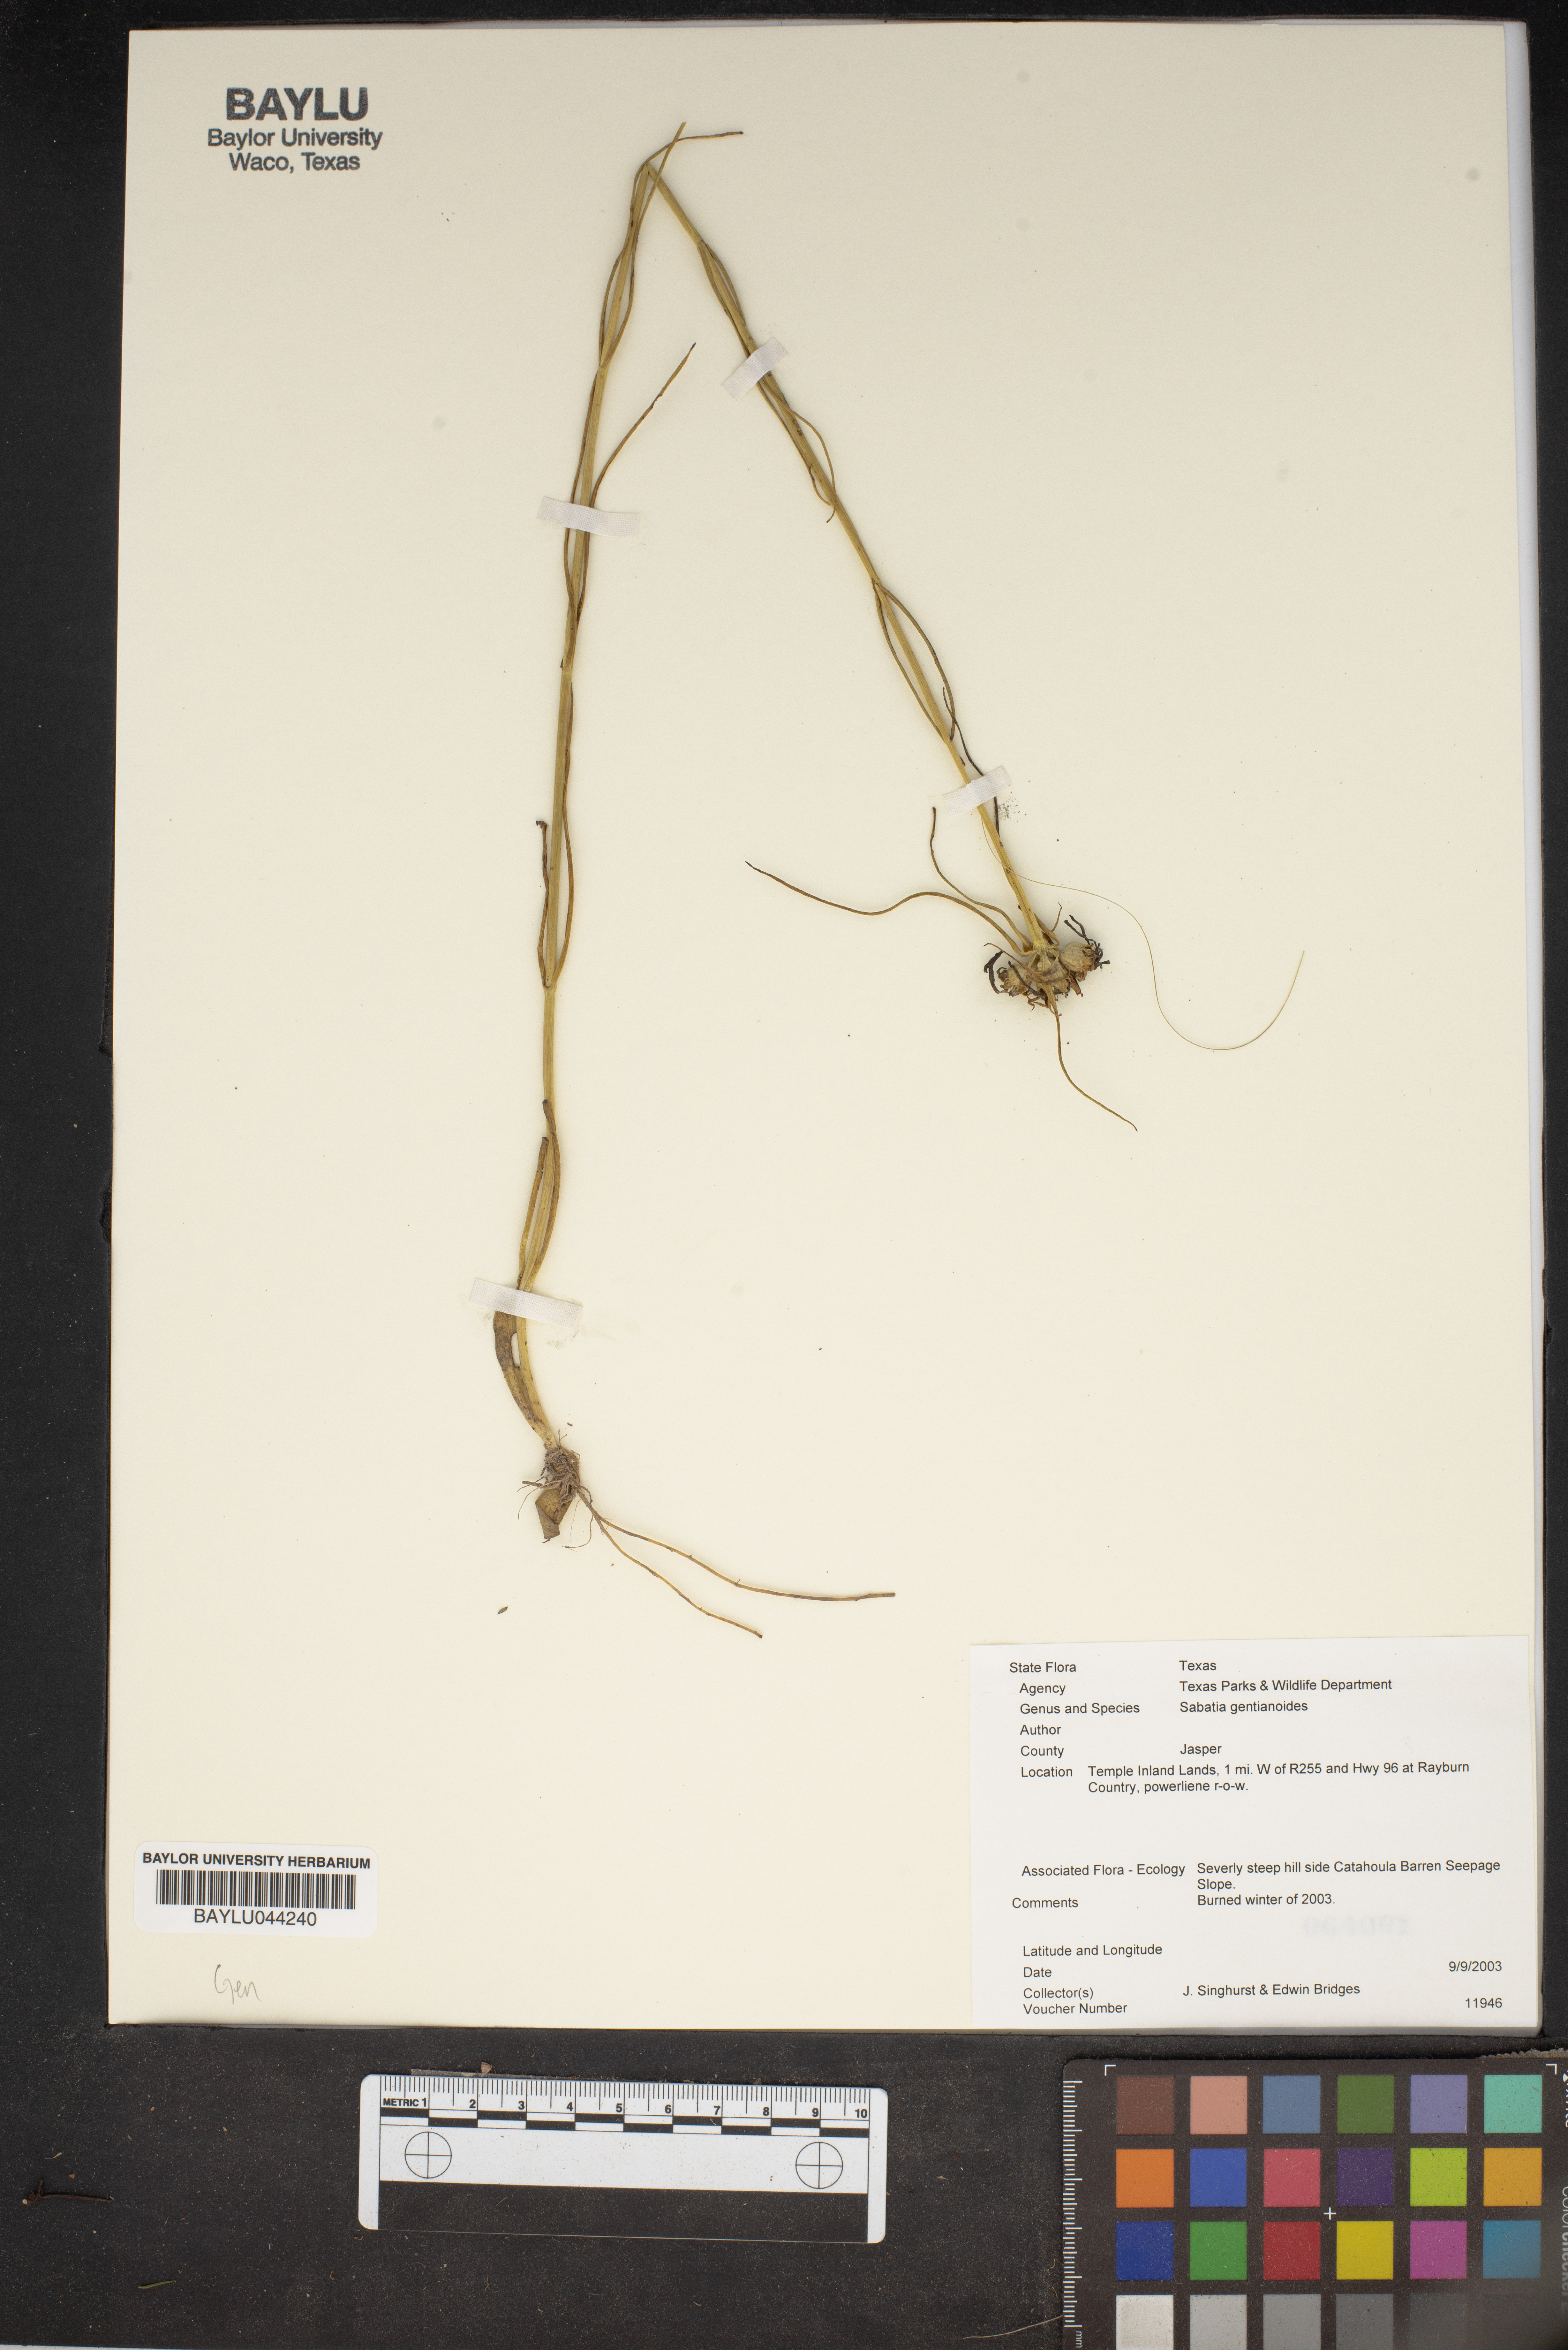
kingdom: Plantae
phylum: Tracheophyta
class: Magnoliopsida
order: Gentianales
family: Gentianaceae
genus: Sabatia
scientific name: Sabatia gentianoides
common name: Pinewoods rose-gentian
